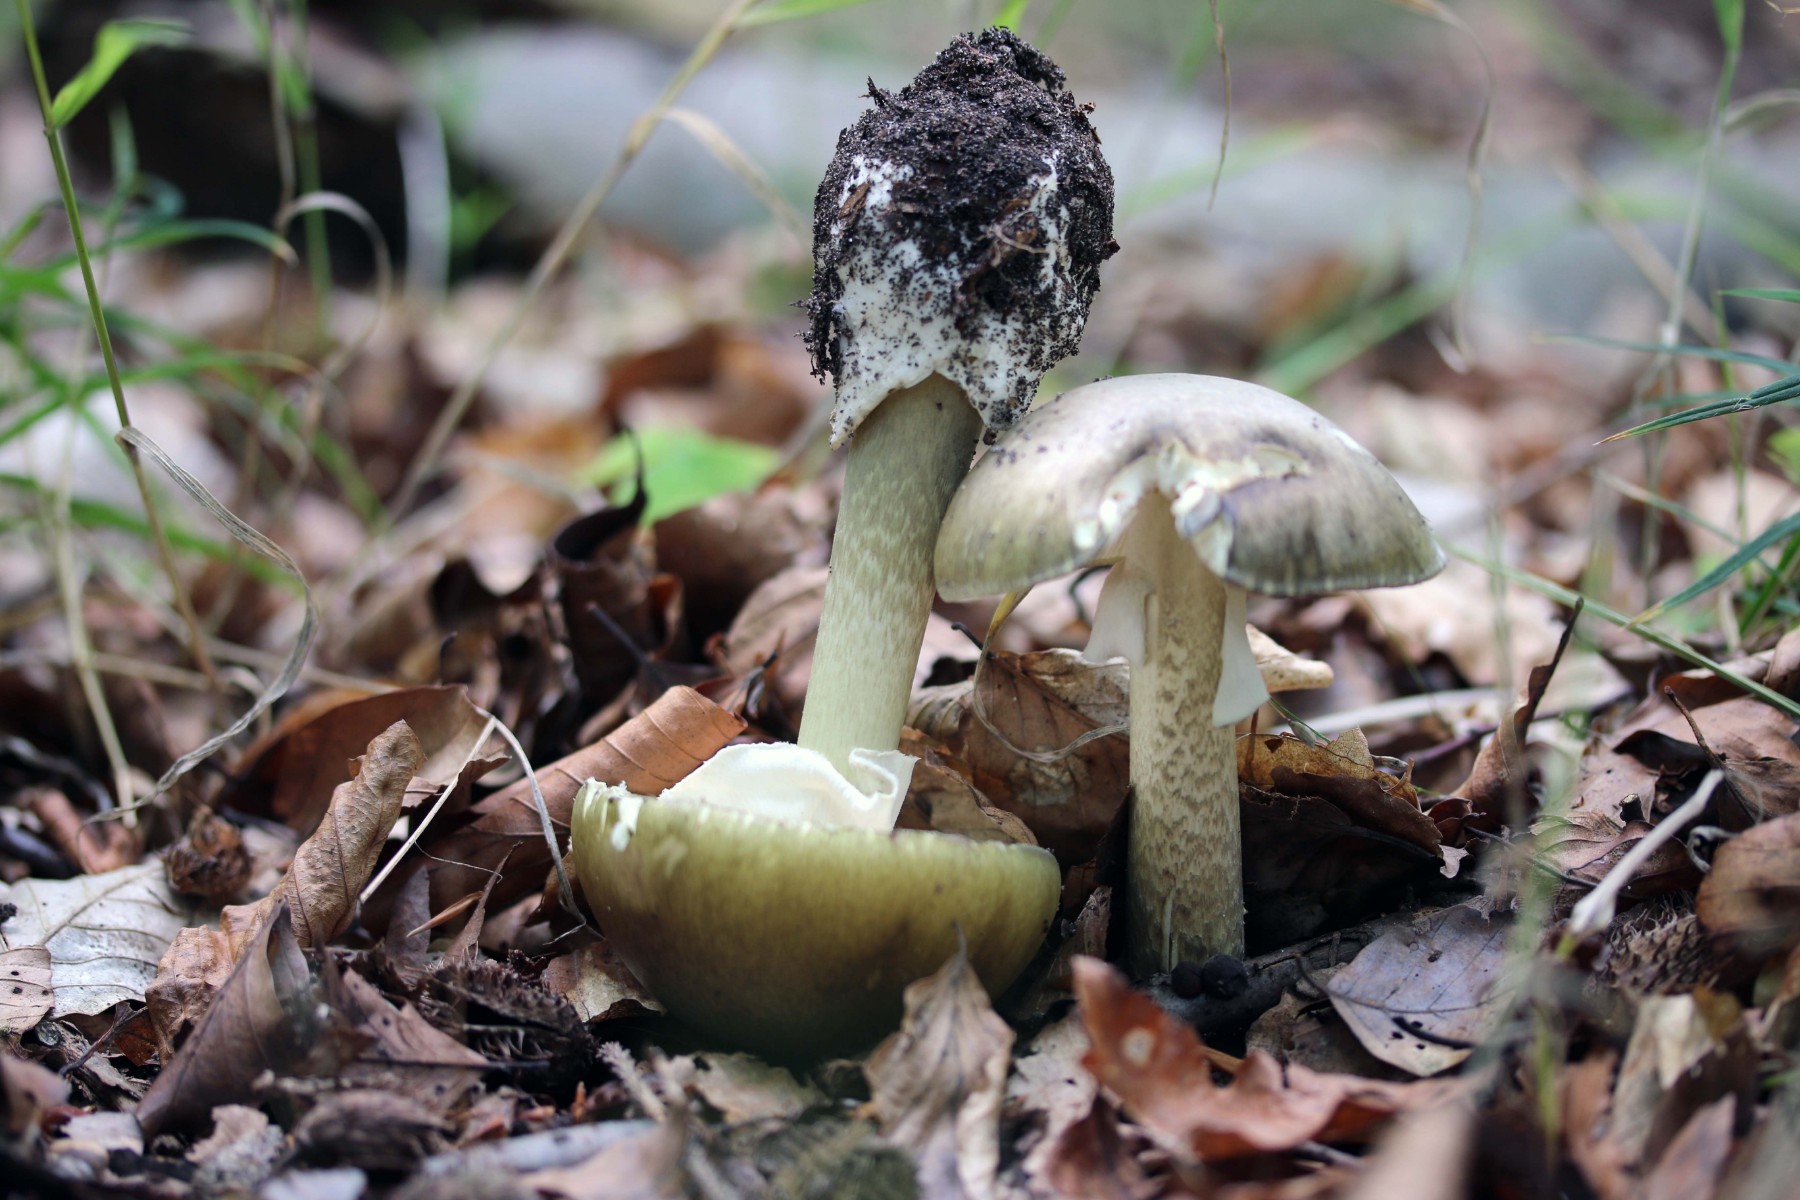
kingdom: Fungi
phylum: Basidiomycota
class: Agaricomycetes
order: Agaricales
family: Amanitaceae
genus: Amanita
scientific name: Amanita phalloides
